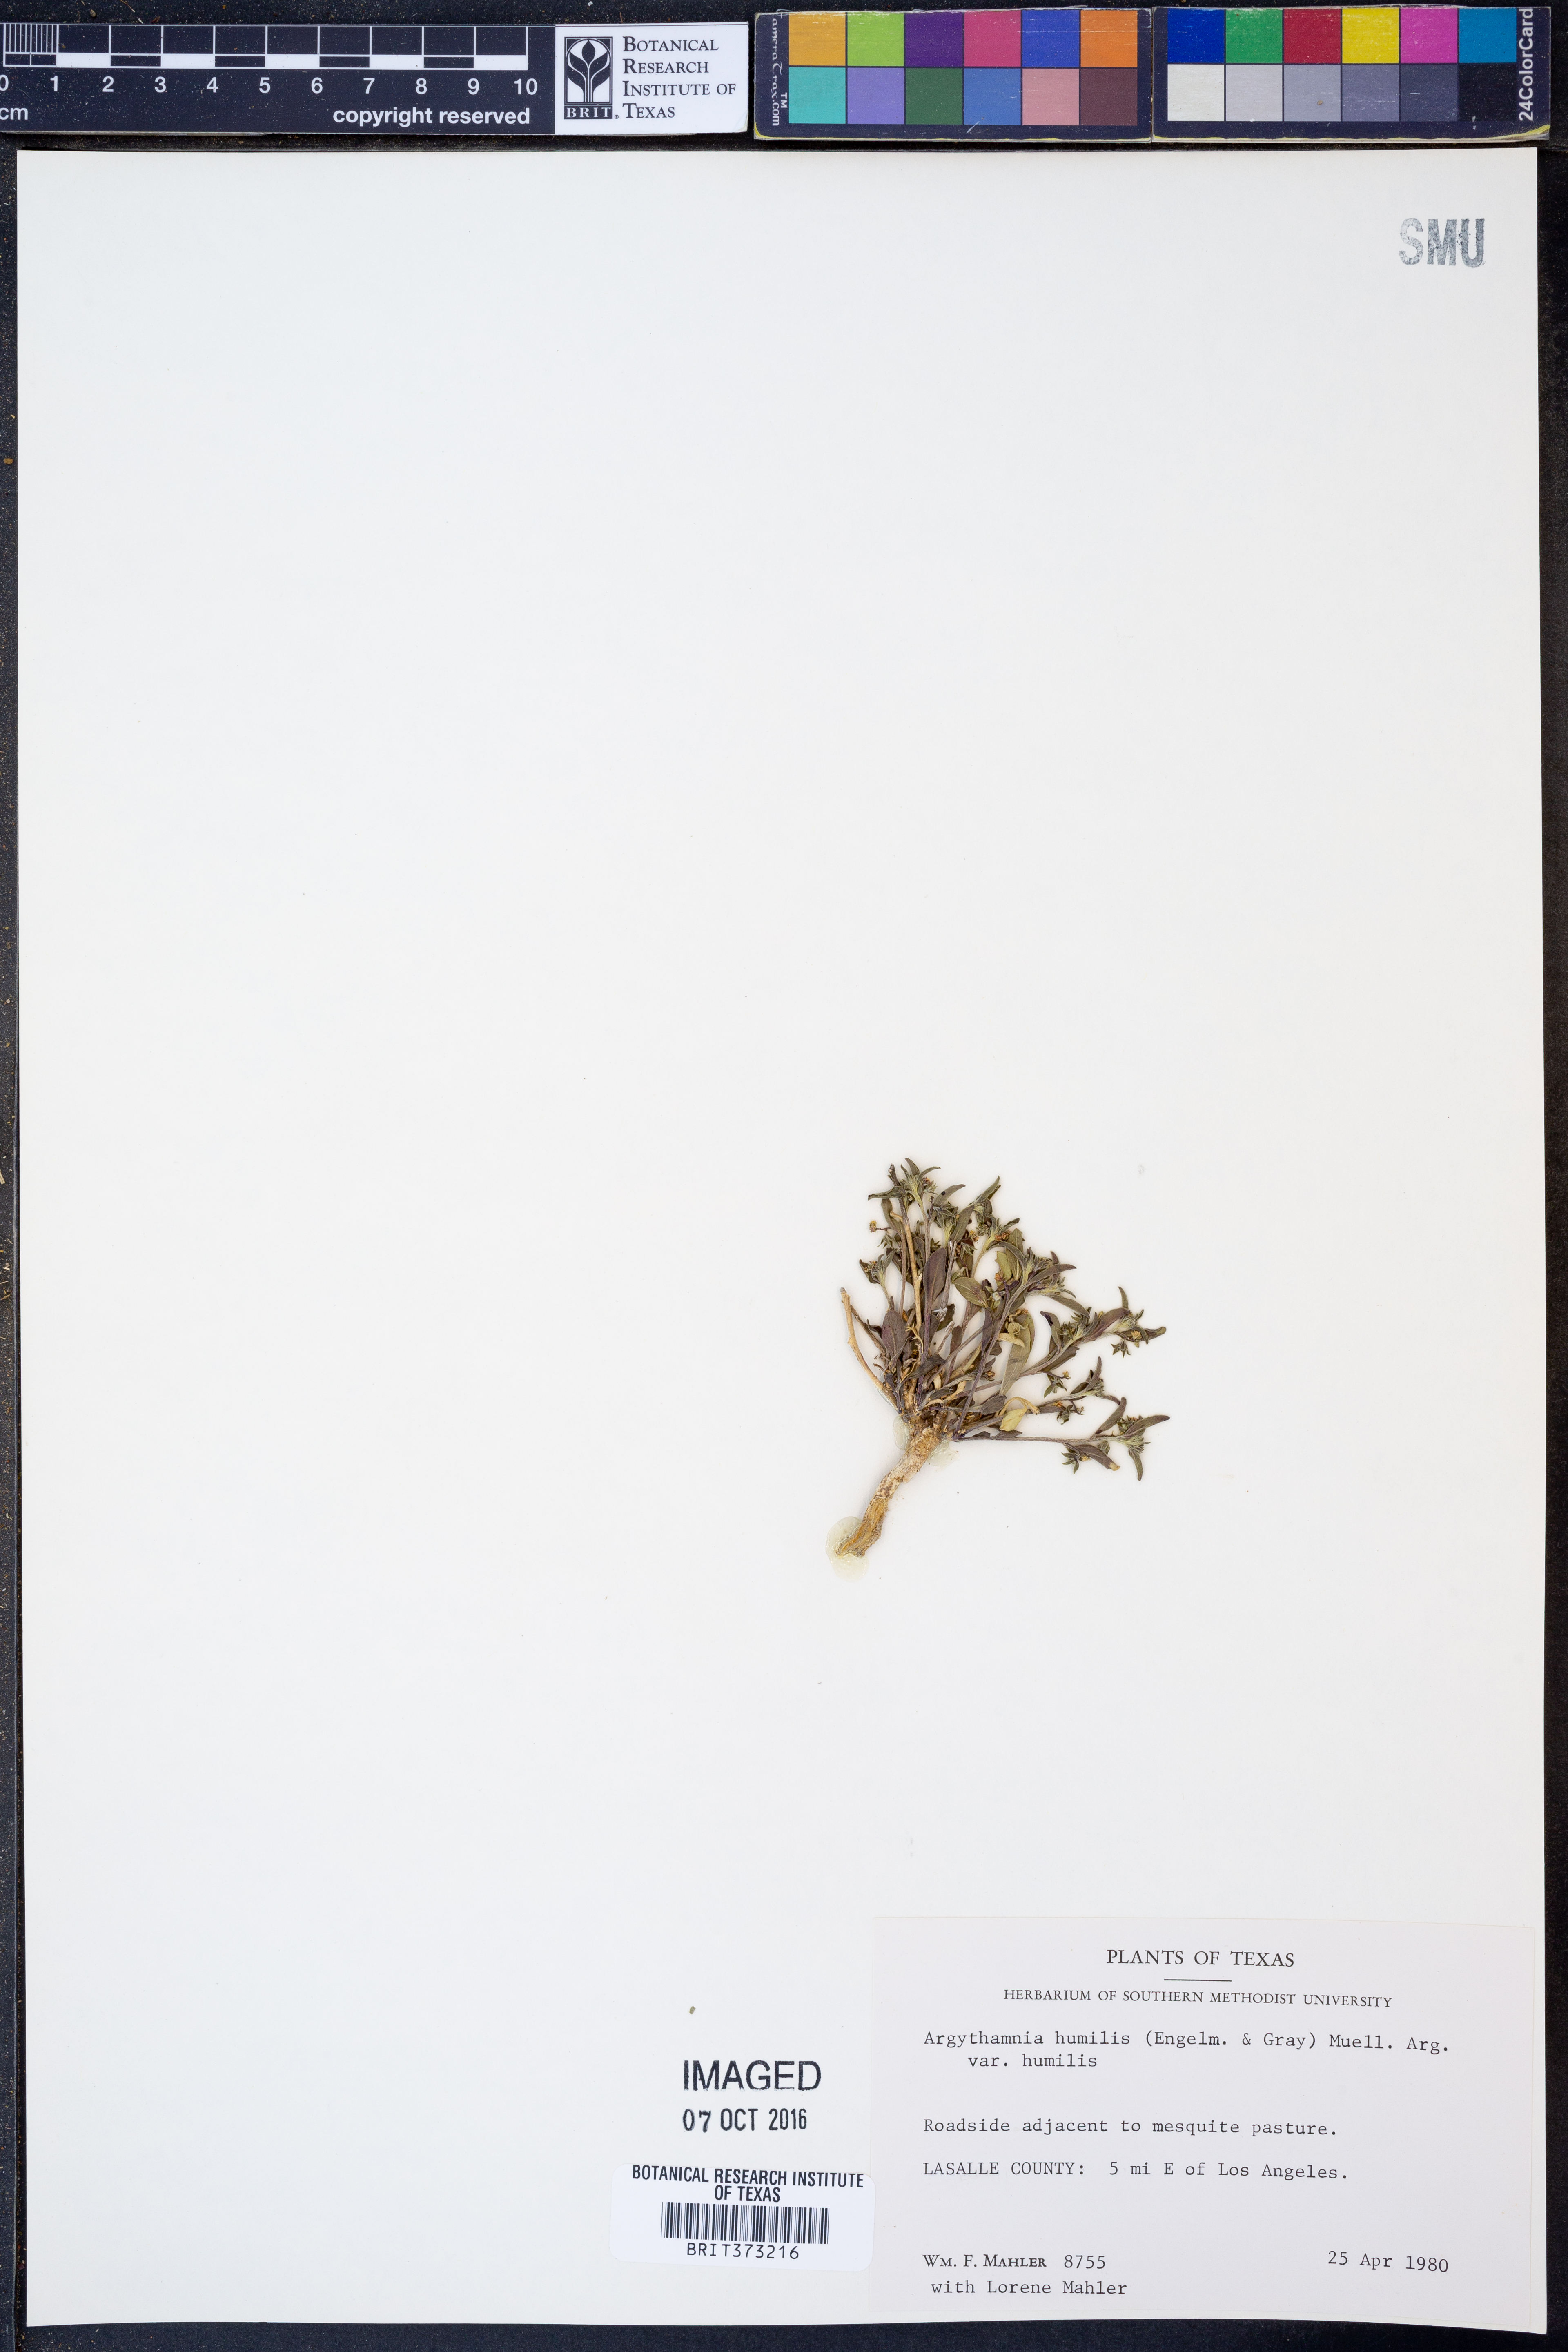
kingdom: Plantae
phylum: Tracheophyta
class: Magnoliopsida
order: Malpighiales
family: Euphorbiaceae
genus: Ditaxis
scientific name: Ditaxis humilis
